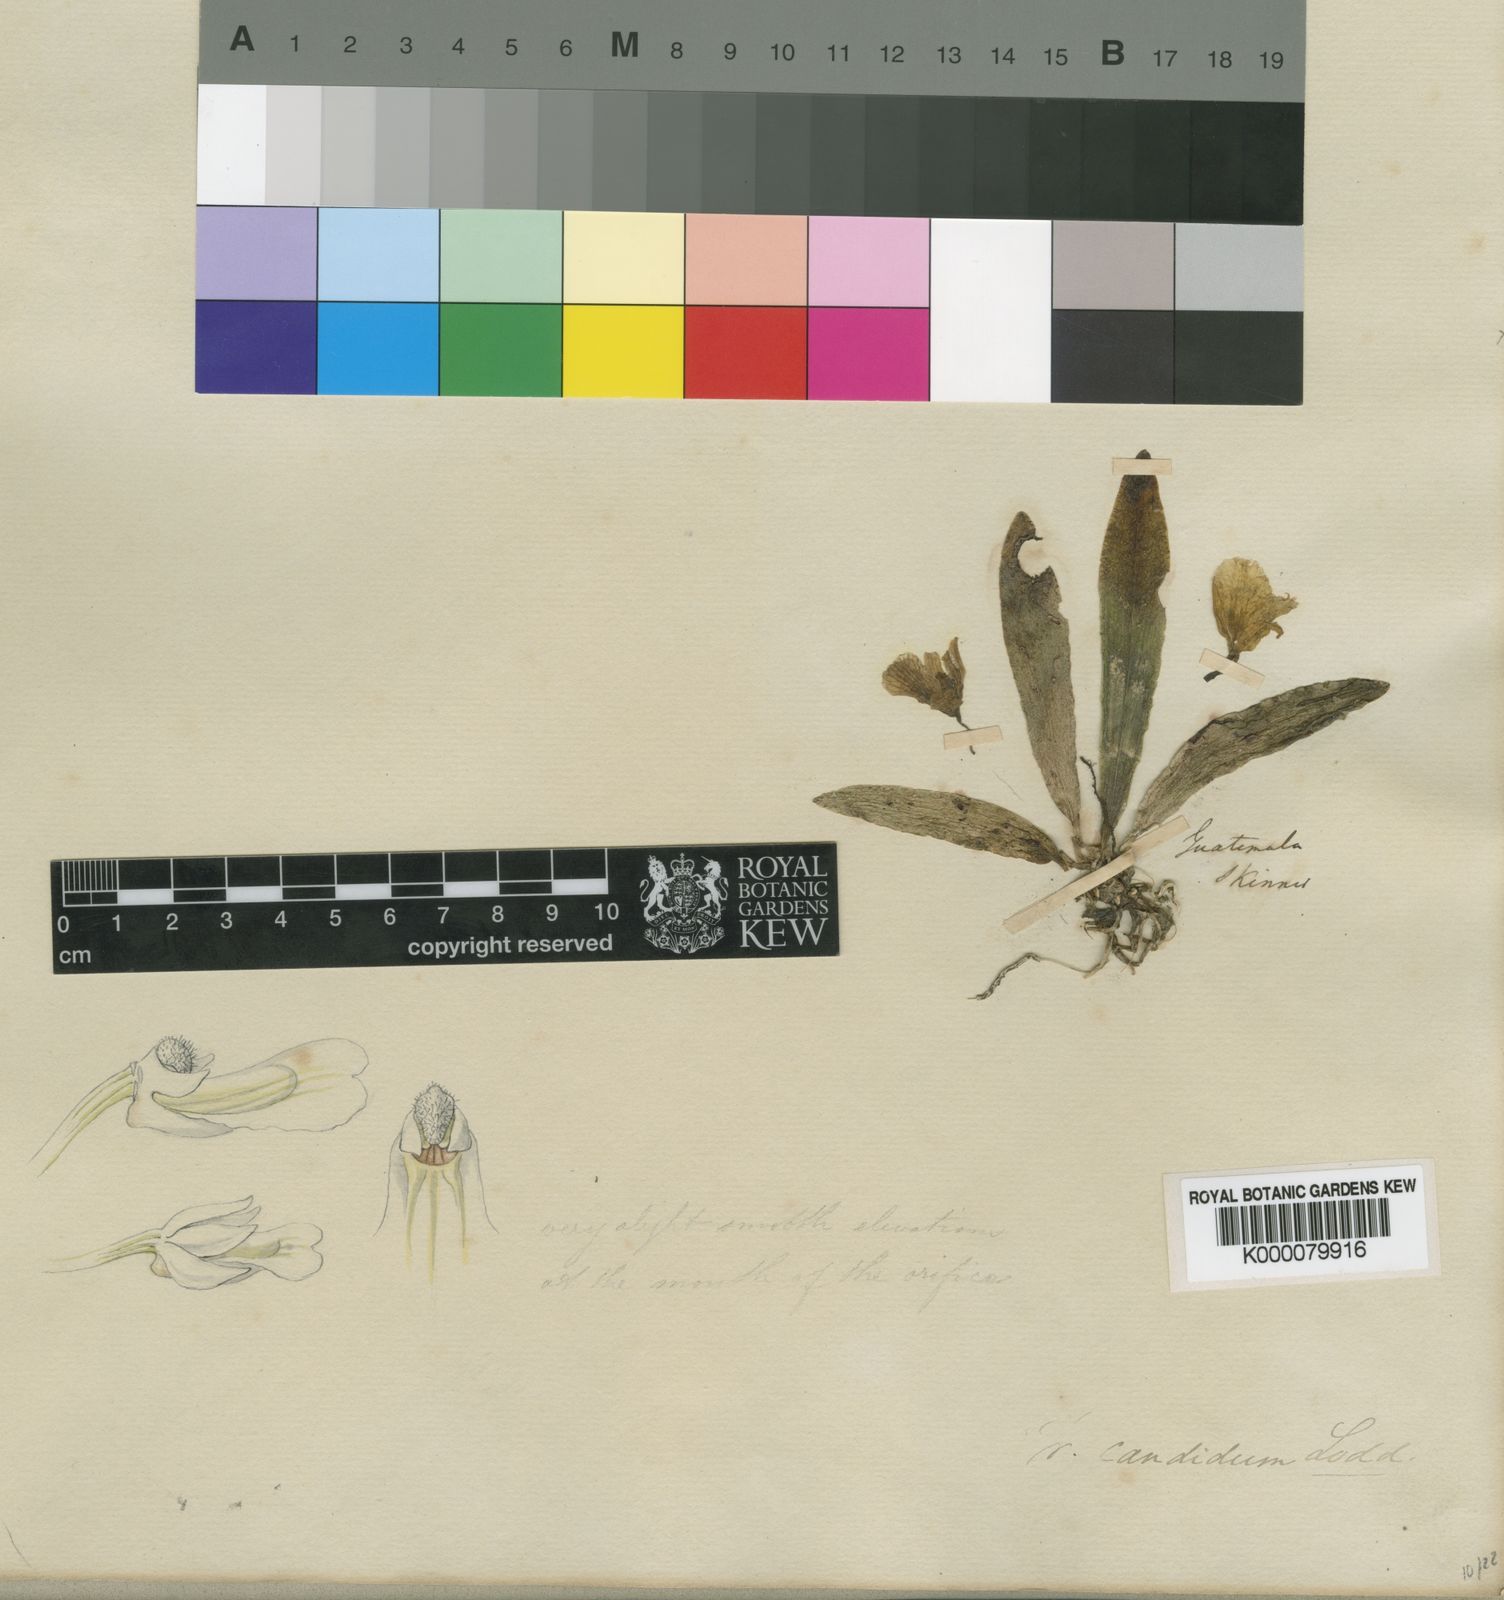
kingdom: Plantae
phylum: Tracheophyta
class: Liliopsida
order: Asparagales
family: Orchidaceae
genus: Trichocentrum
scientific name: Trichocentrum candidum
